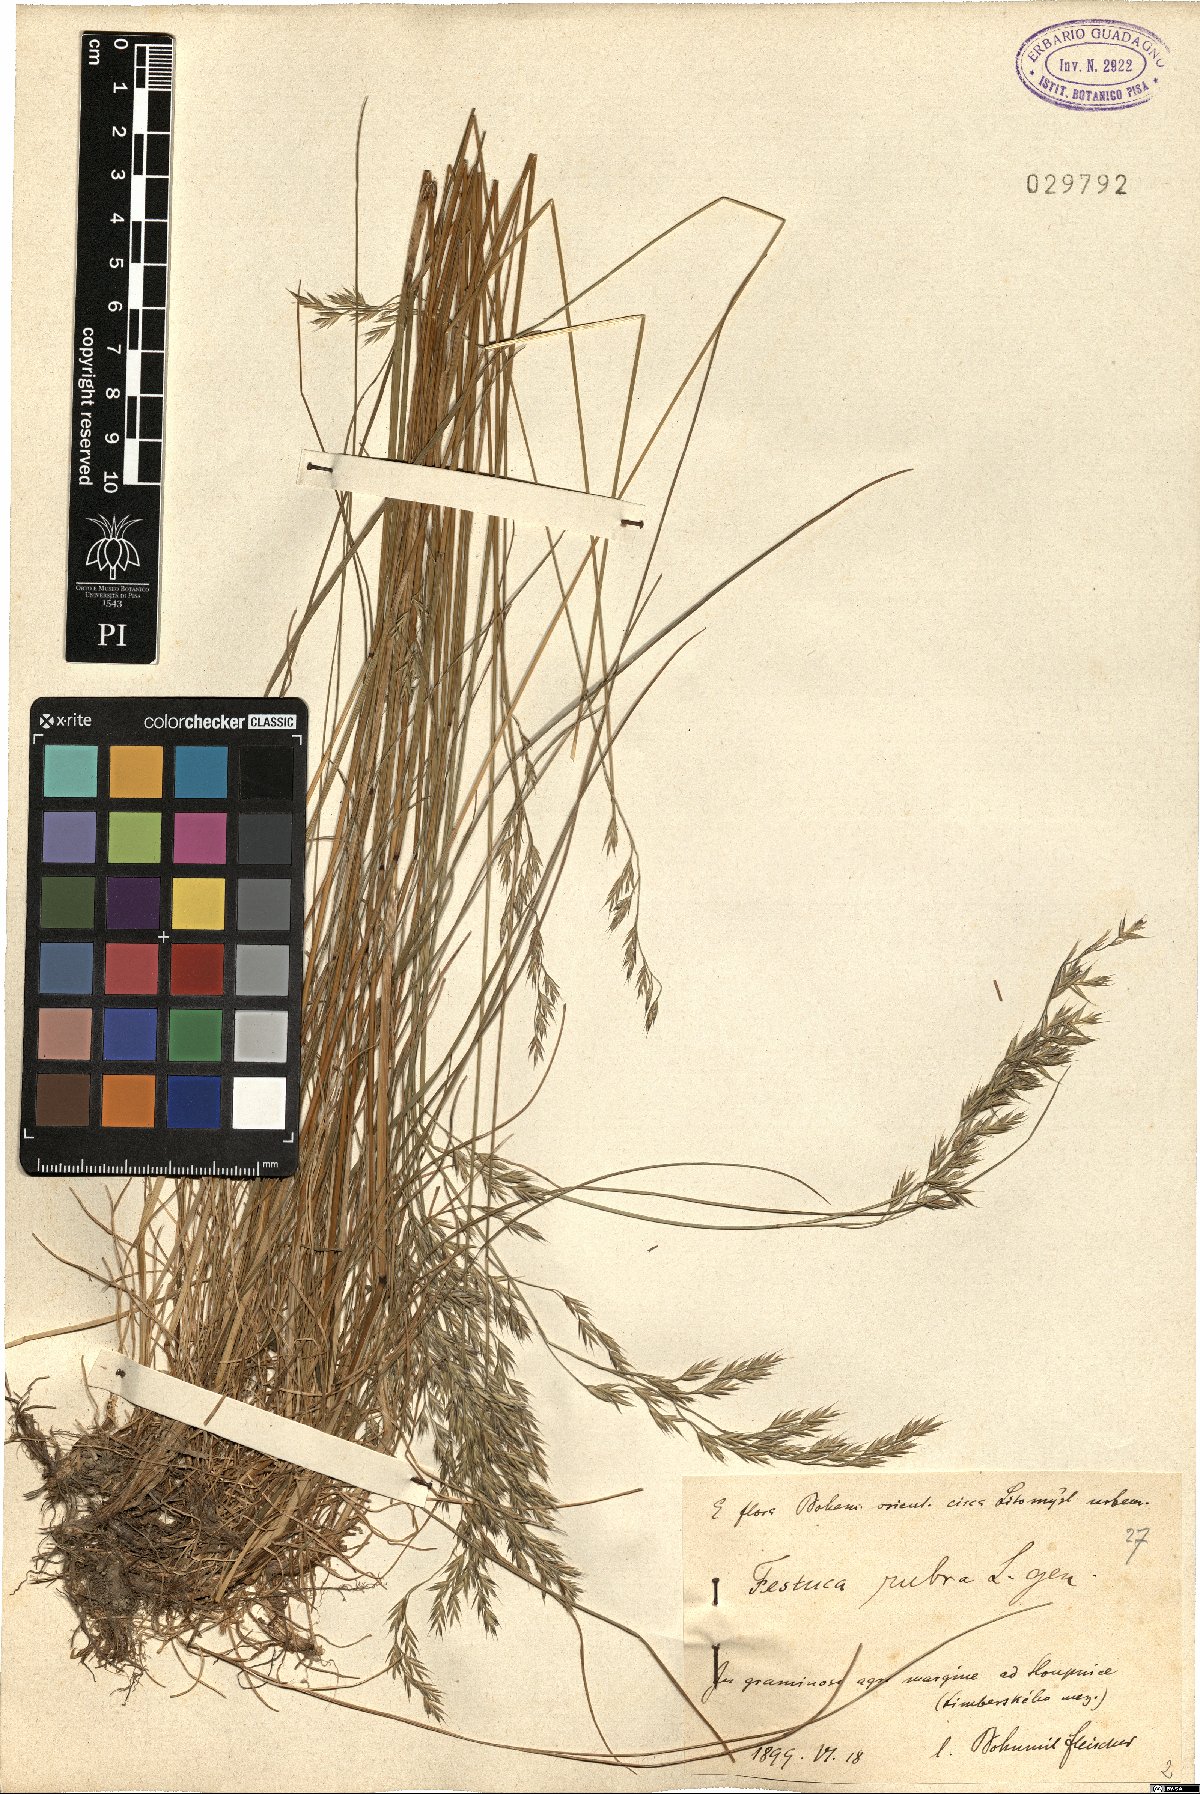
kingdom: Plantae
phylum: Tracheophyta
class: Liliopsida
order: Poales
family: Poaceae
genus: Festuca
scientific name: Festuca rubra
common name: Red fescue
